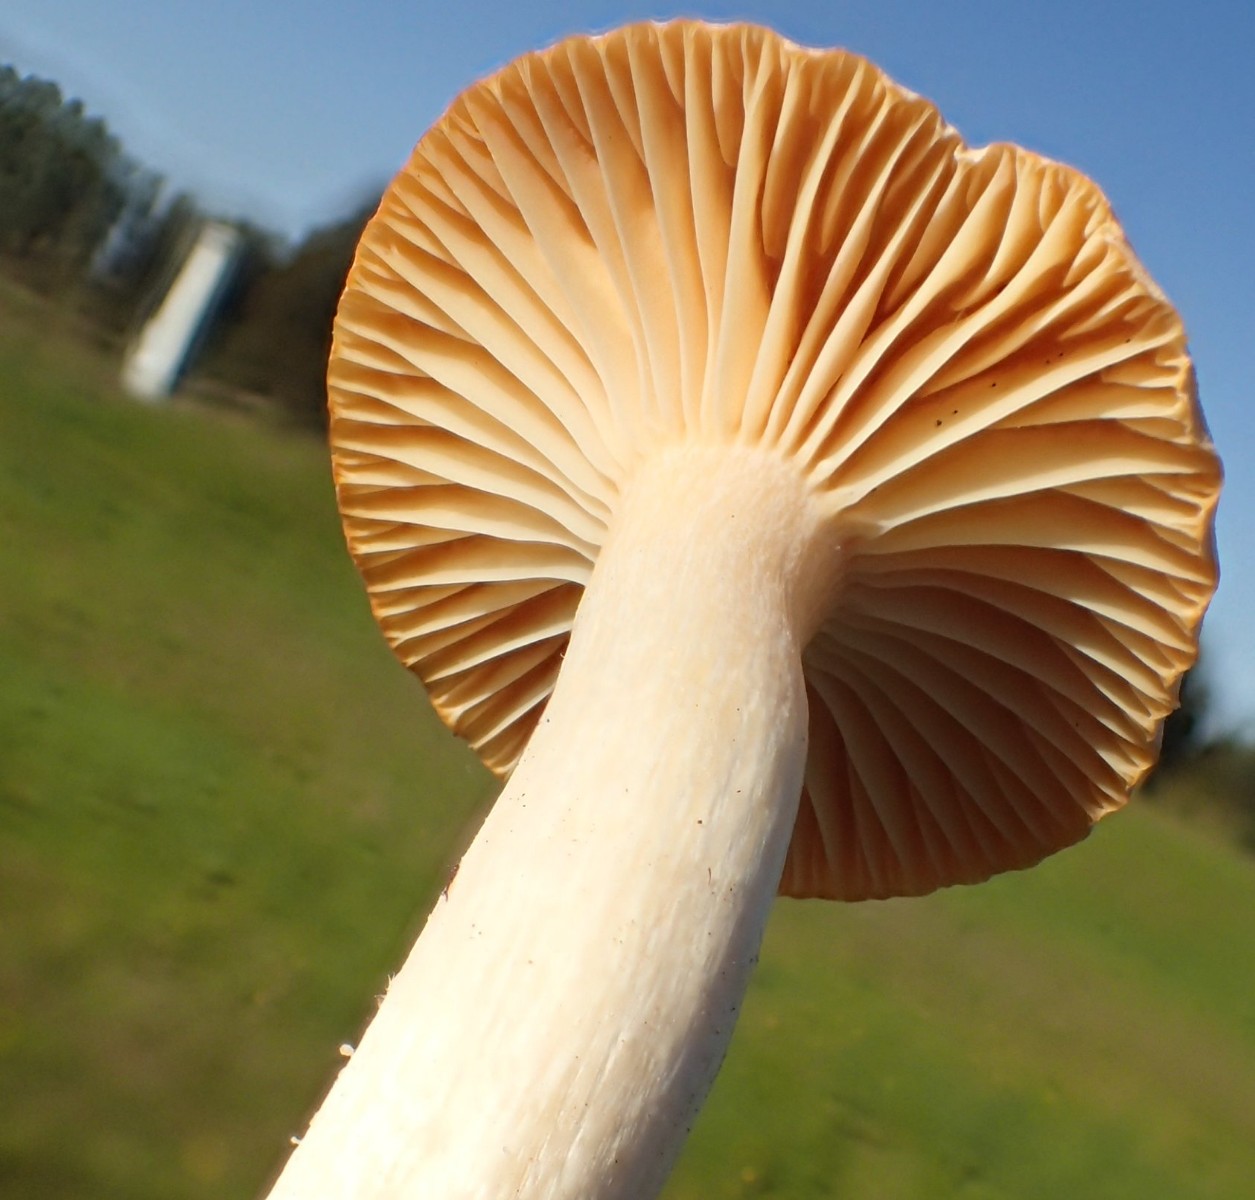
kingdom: Fungi
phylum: Basidiomycota
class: Agaricomycetes
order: Agaricales
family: Hygrophoraceae
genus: Cuphophyllus
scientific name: Cuphophyllus pratensis
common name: eng-vokshat
